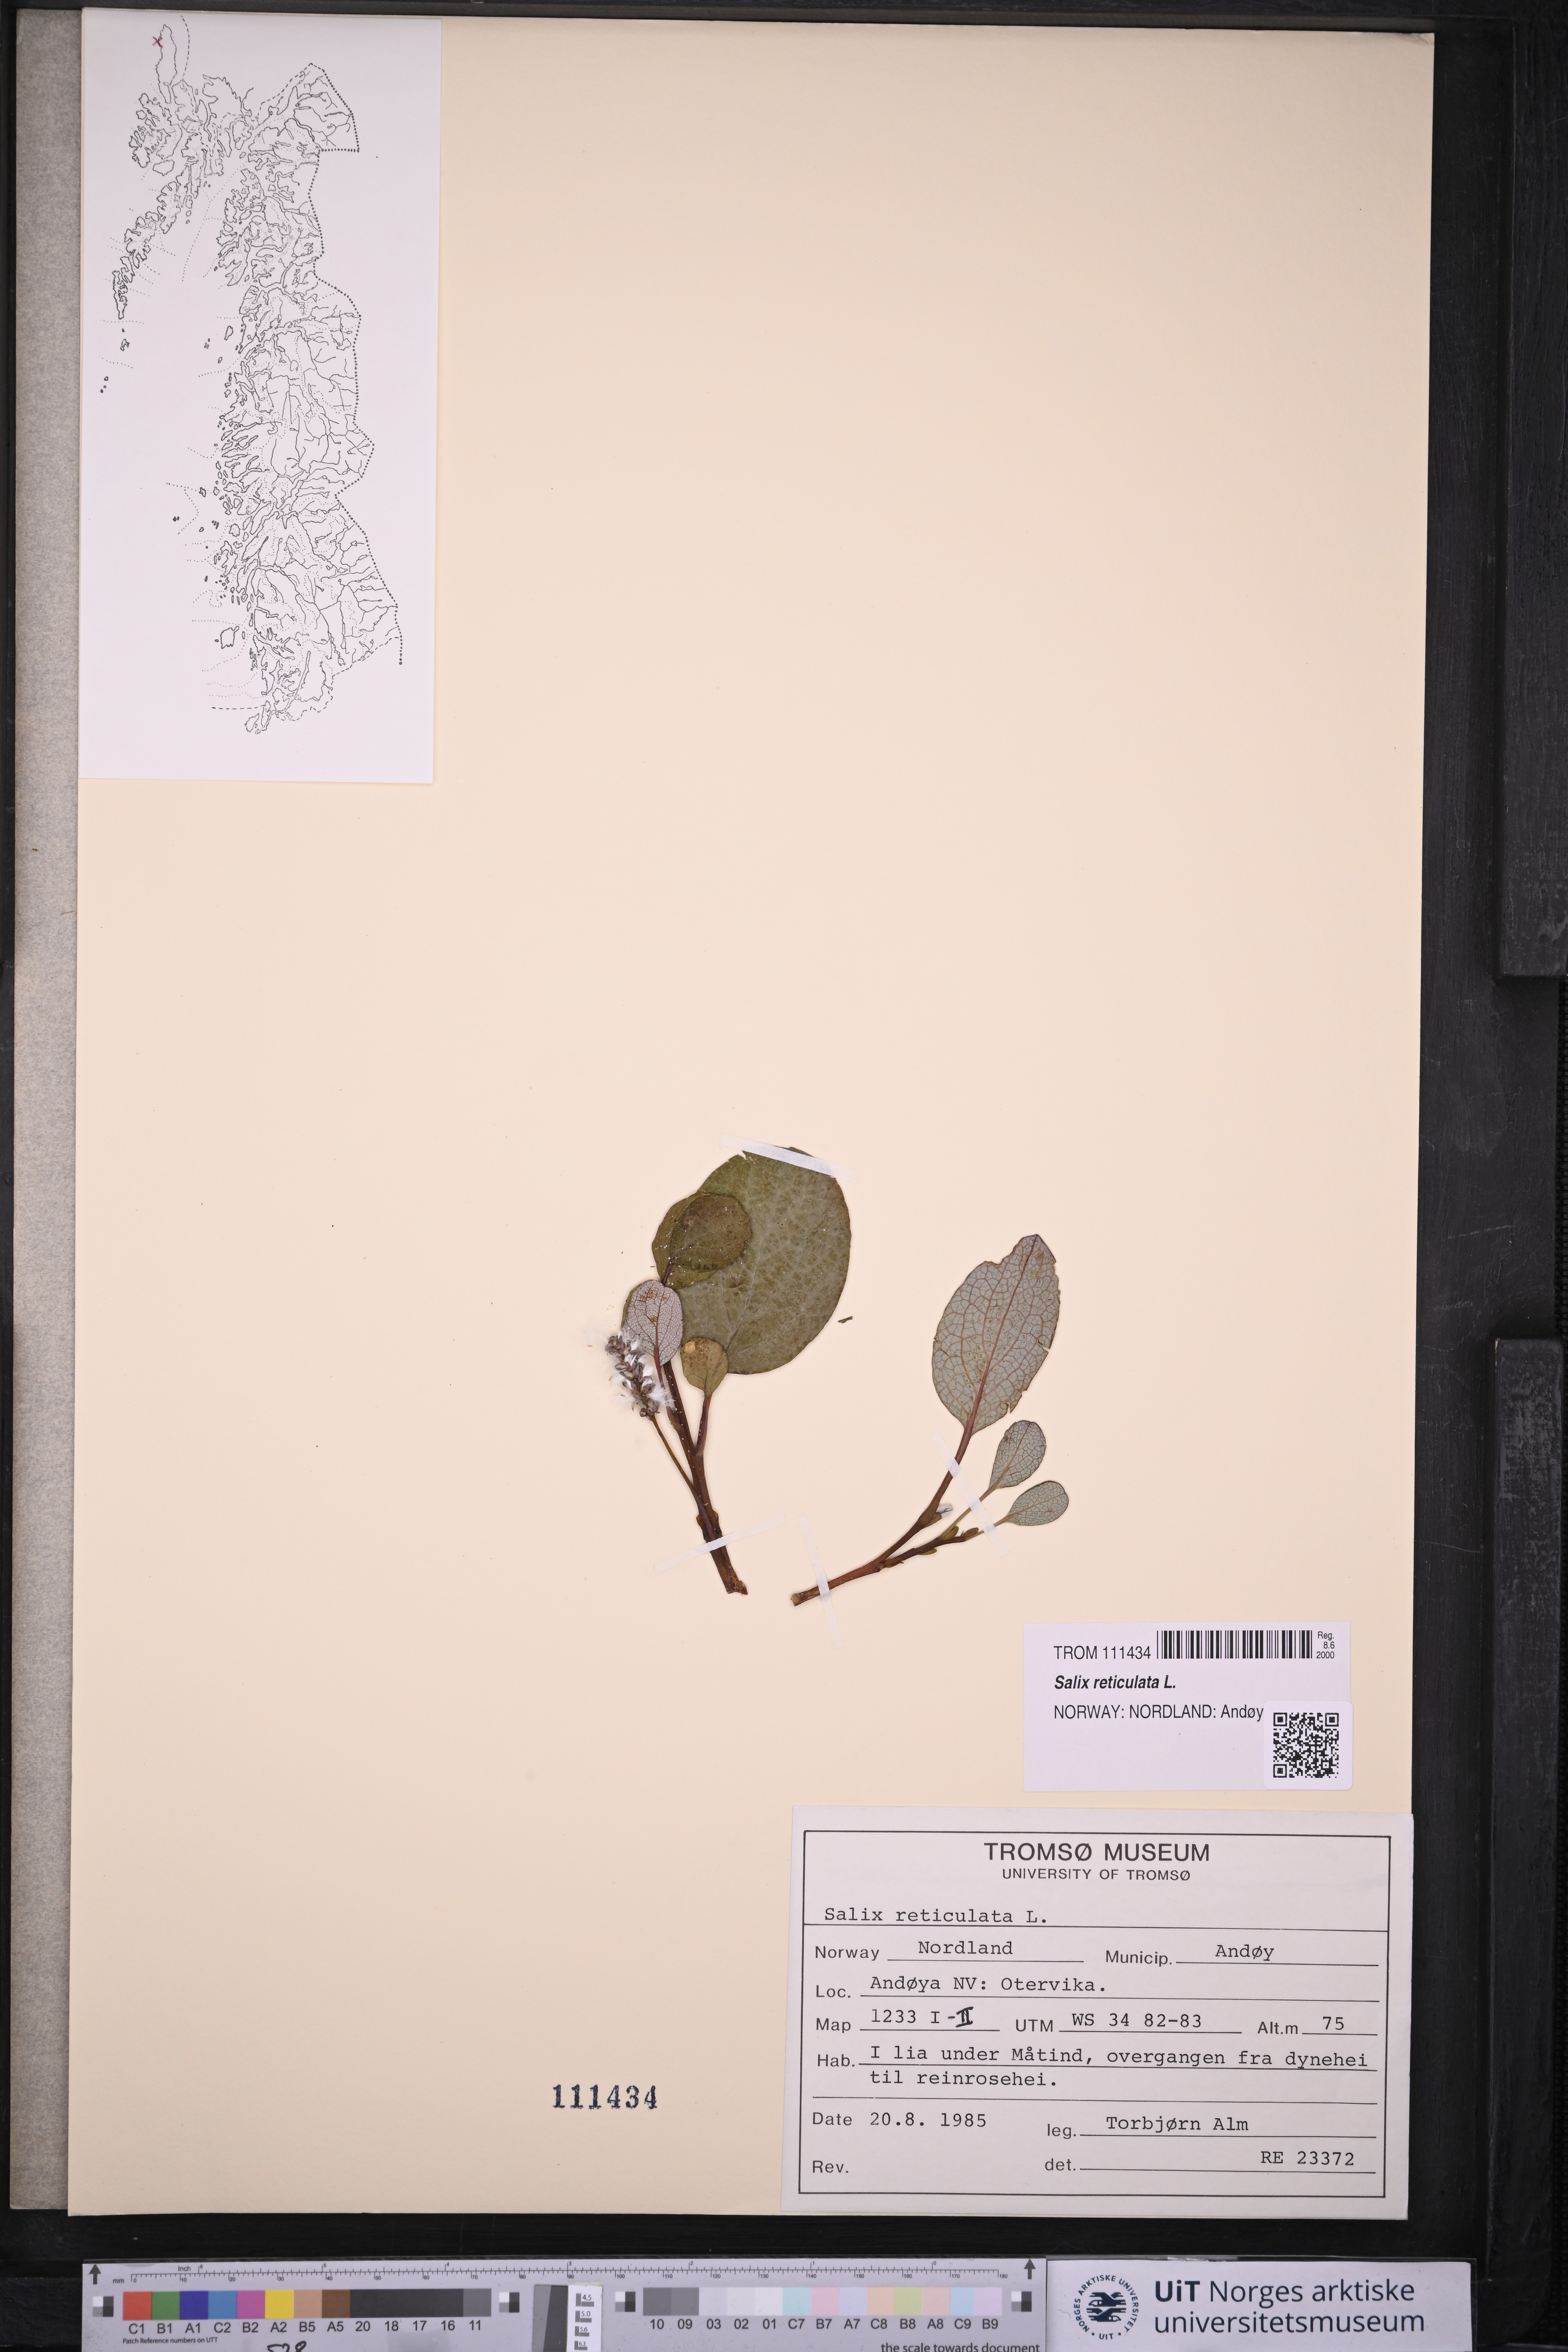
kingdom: Plantae
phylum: Tracheophyta
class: Magnoliopsida
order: Malpighiales
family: Salicaceae
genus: Salix
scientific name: Salix reticulata
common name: Net-leaved willow
